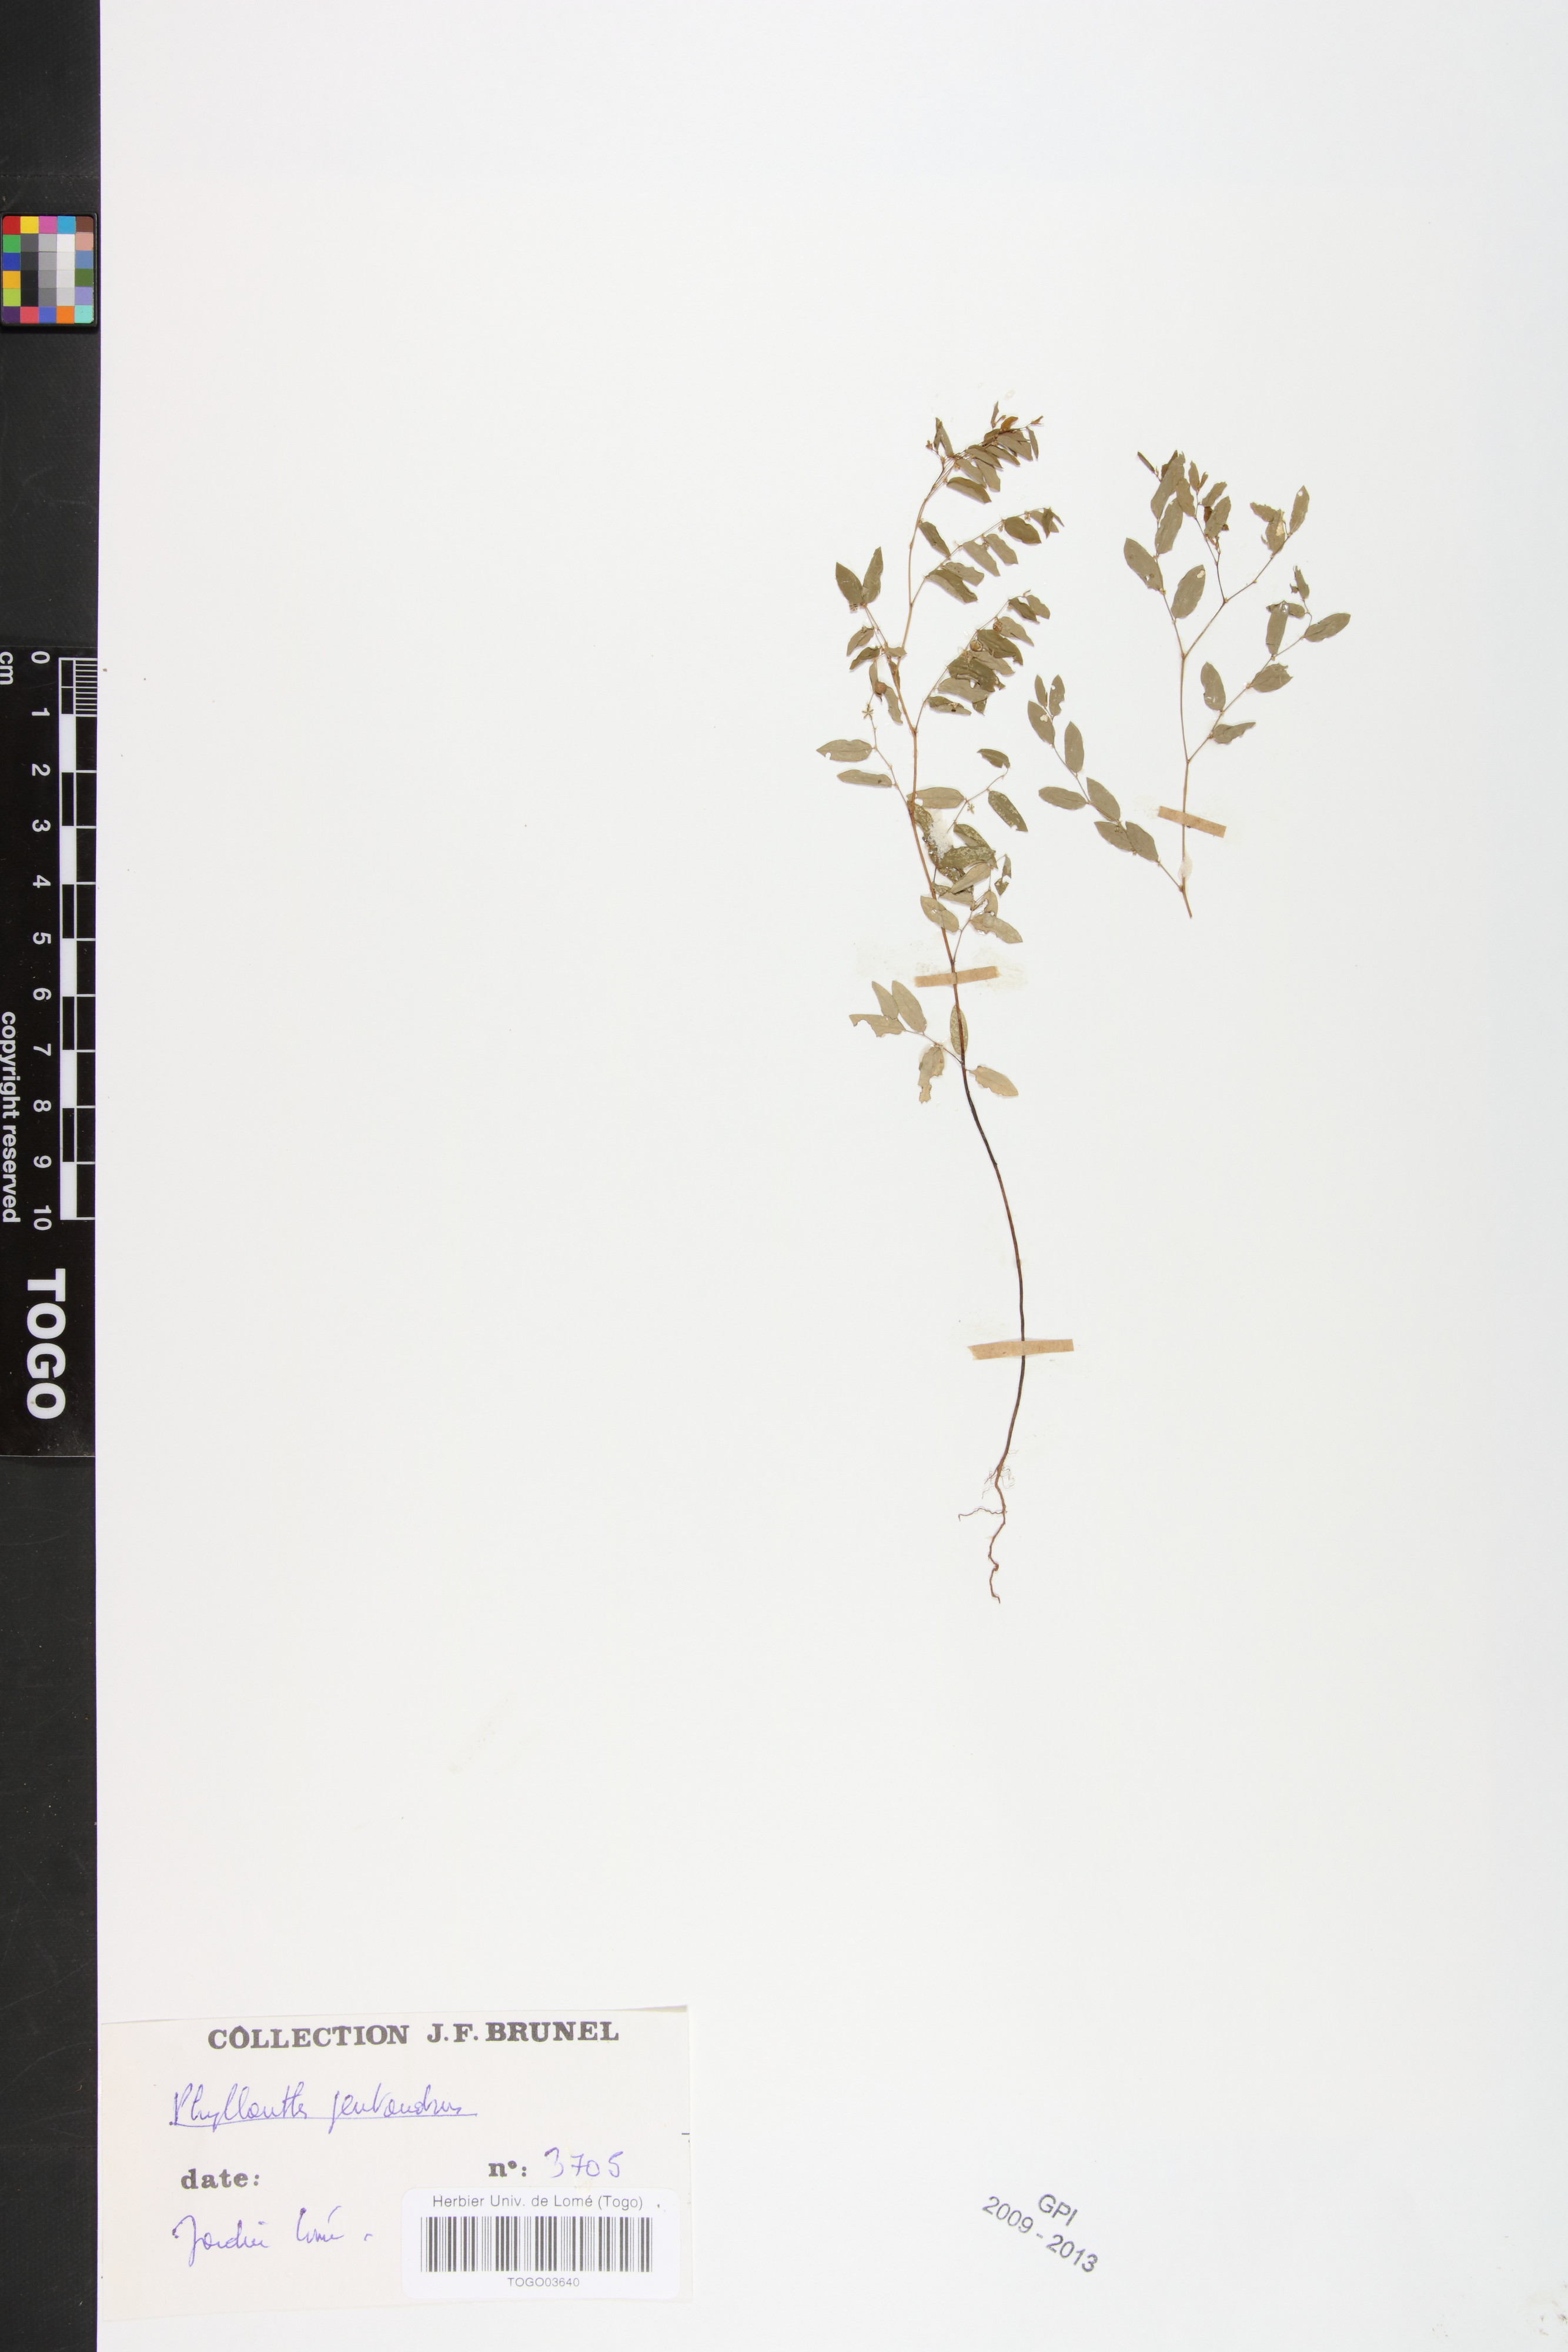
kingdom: Plantae
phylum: Tracheophyta
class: Magnoliopsida
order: Malpighiales
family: Phyllanthaceae
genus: Phyllanthus
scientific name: Phyllanthus pentandrus
